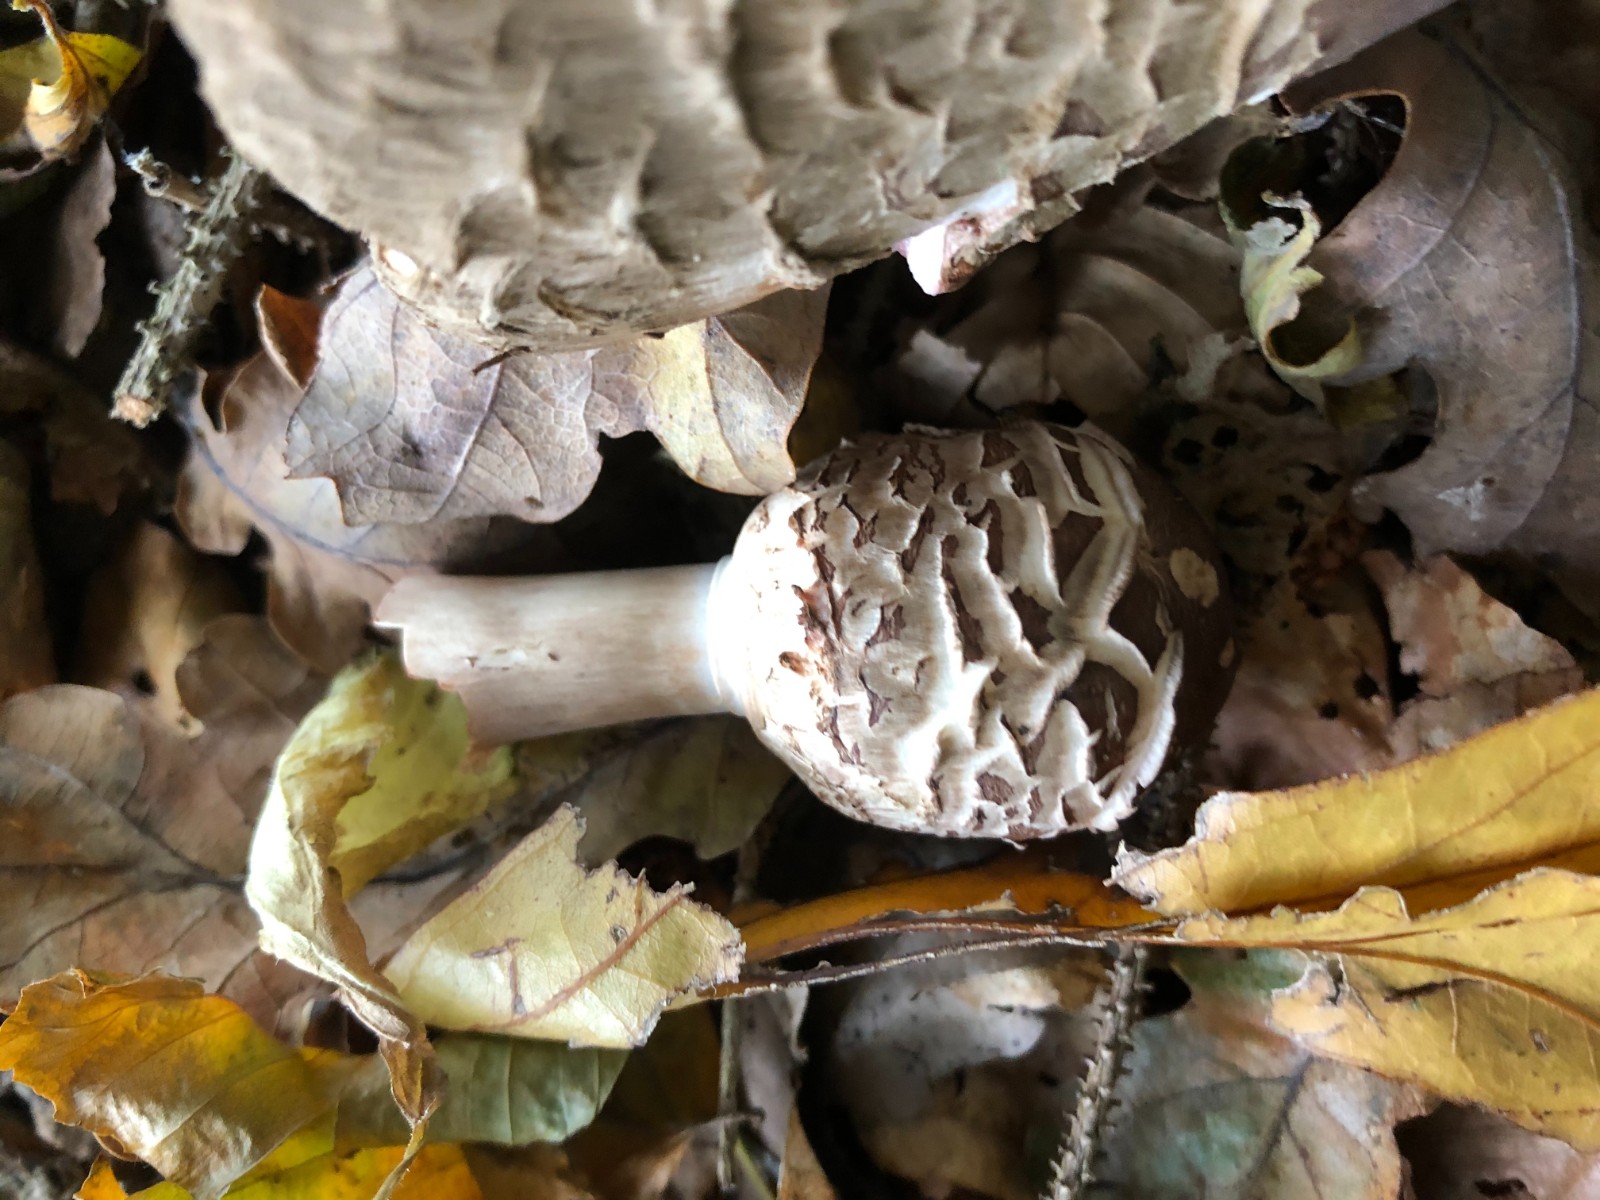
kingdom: Fungi
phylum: Basidiomycota
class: Agaricomycetes
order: Agaricales
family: Agaricaceae
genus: Chlorophyllum
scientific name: Chlorophyllum
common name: rabarberhat
